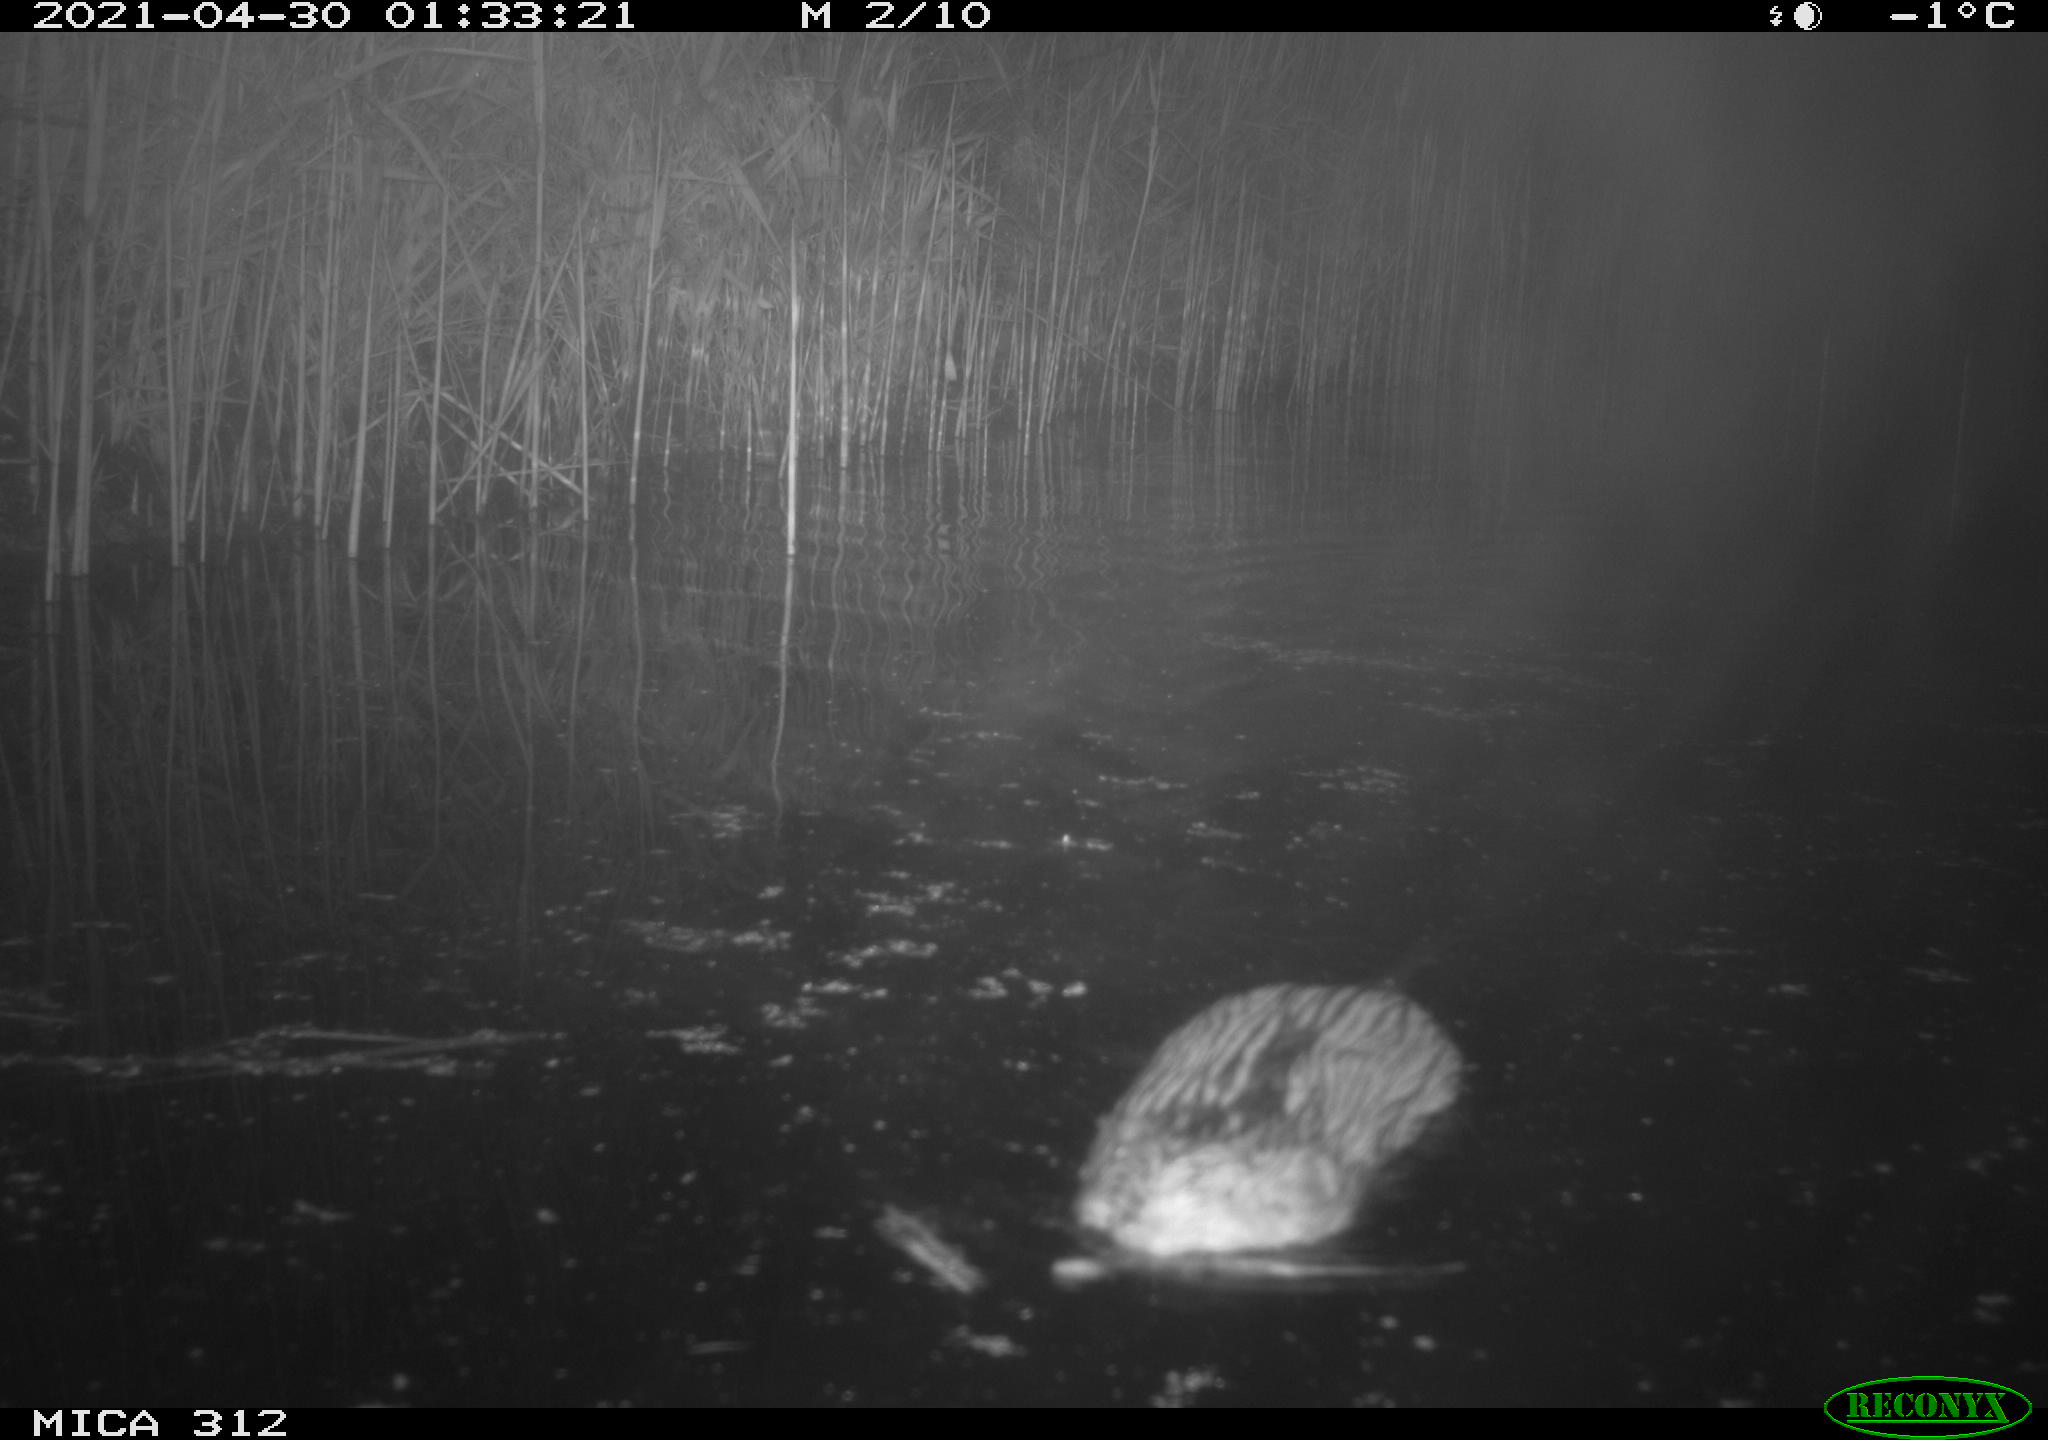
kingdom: Animalia
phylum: Chordata
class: Mammalia
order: Rodentia
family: Cricetidae
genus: Ondatra
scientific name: Ondatra zibethicus
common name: Muskrat
